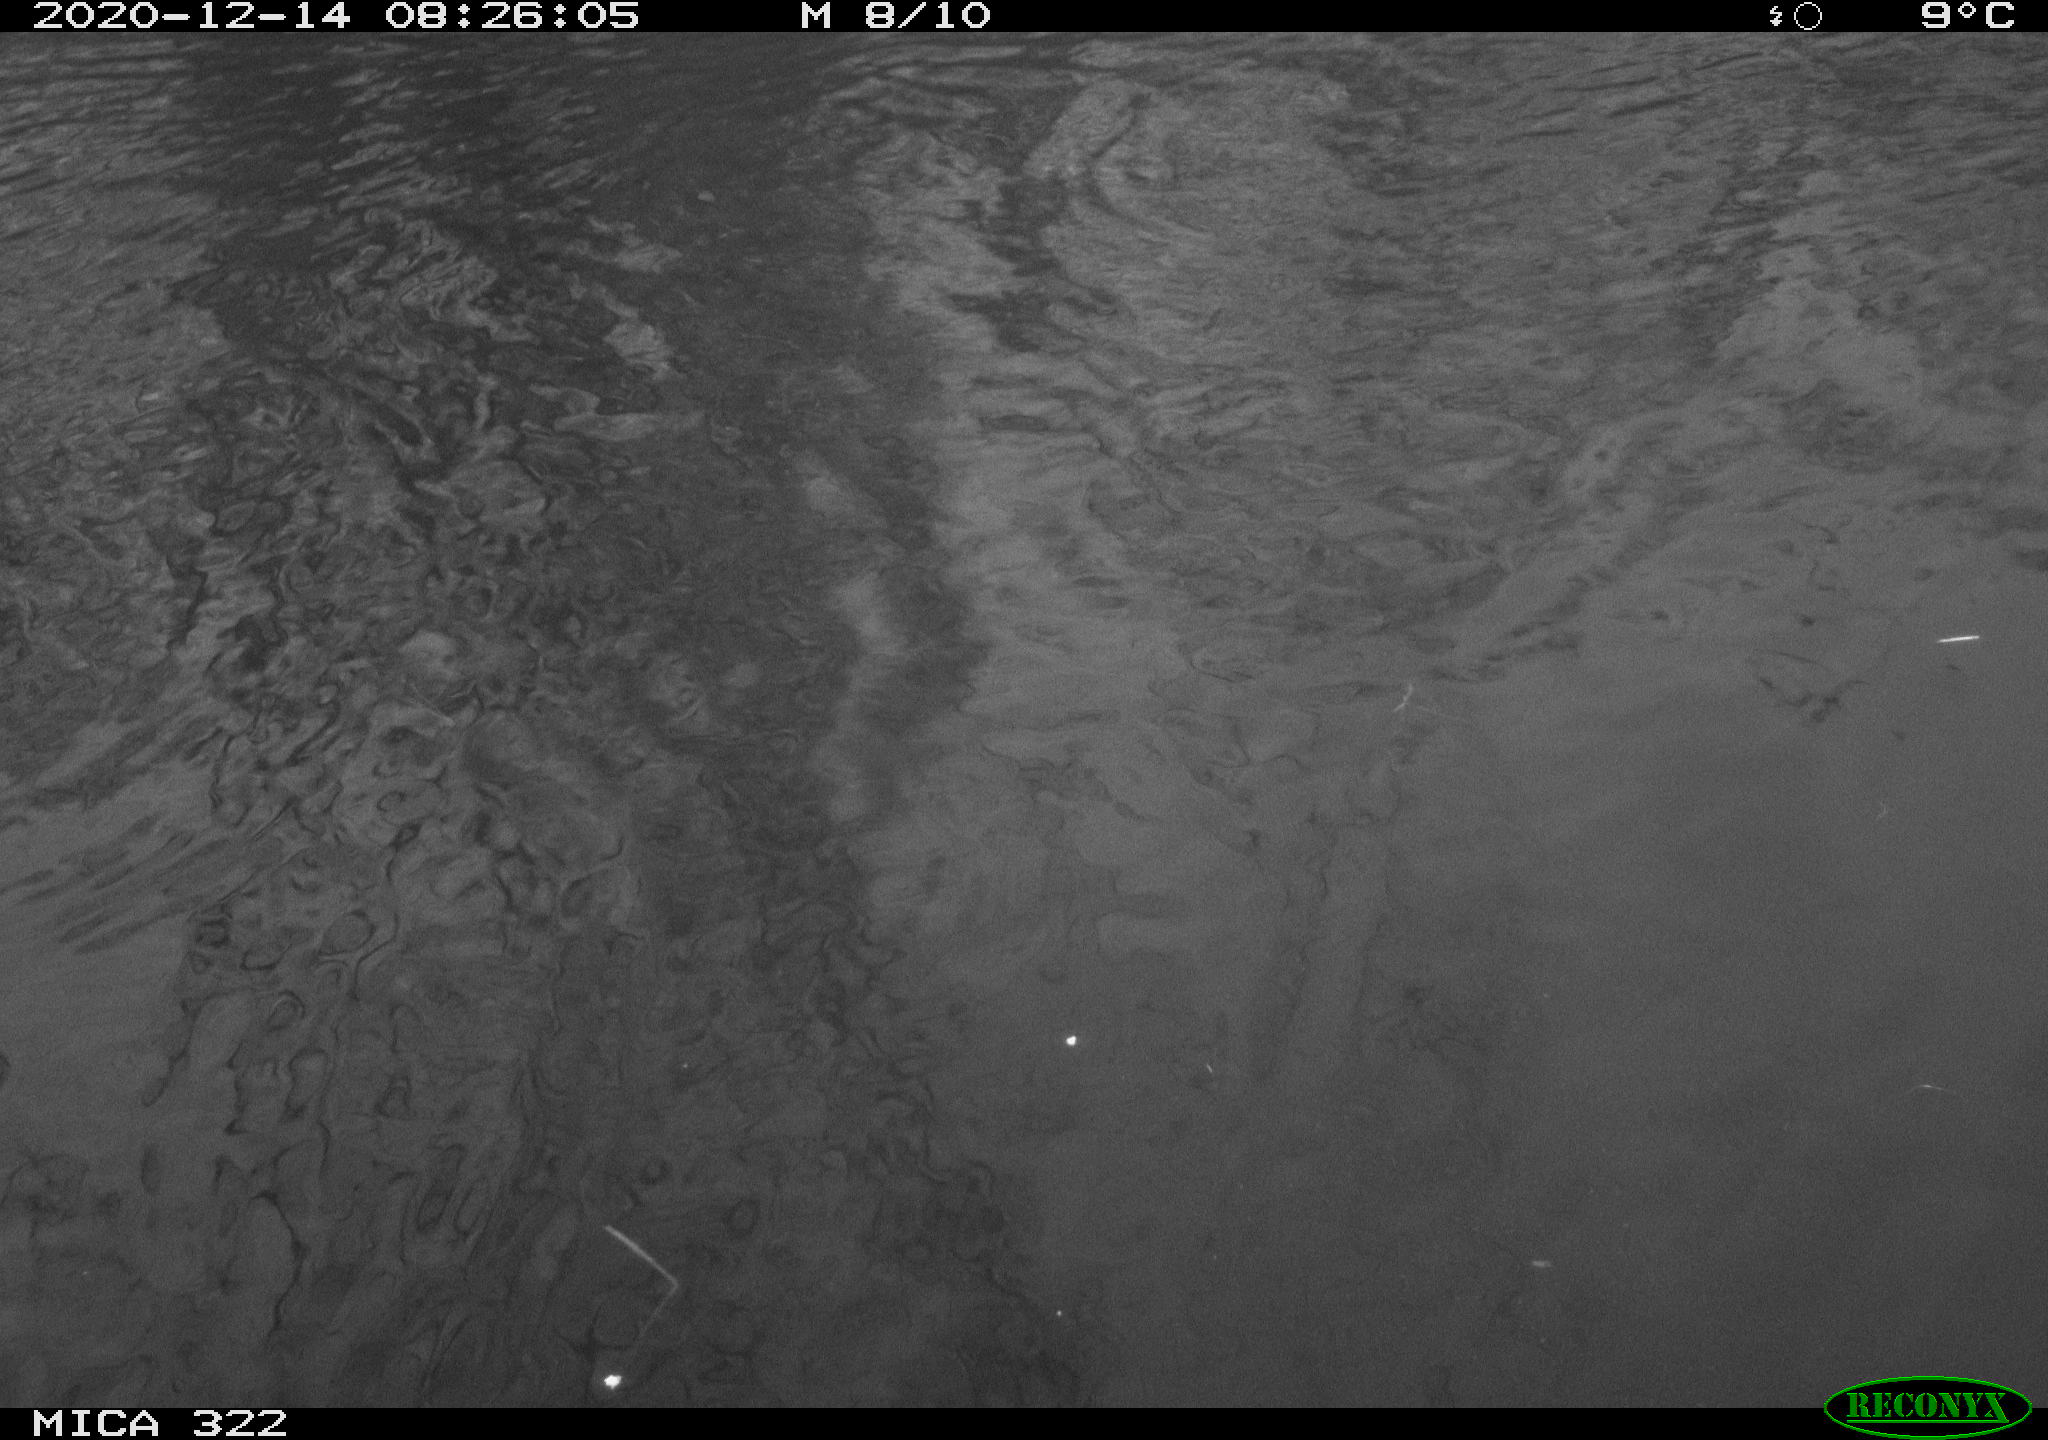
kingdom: Animalia
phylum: Chordata
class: Aves
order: Gruiformes
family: Rallidae
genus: Fulica
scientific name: Fulica atra
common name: Eurasian coot
